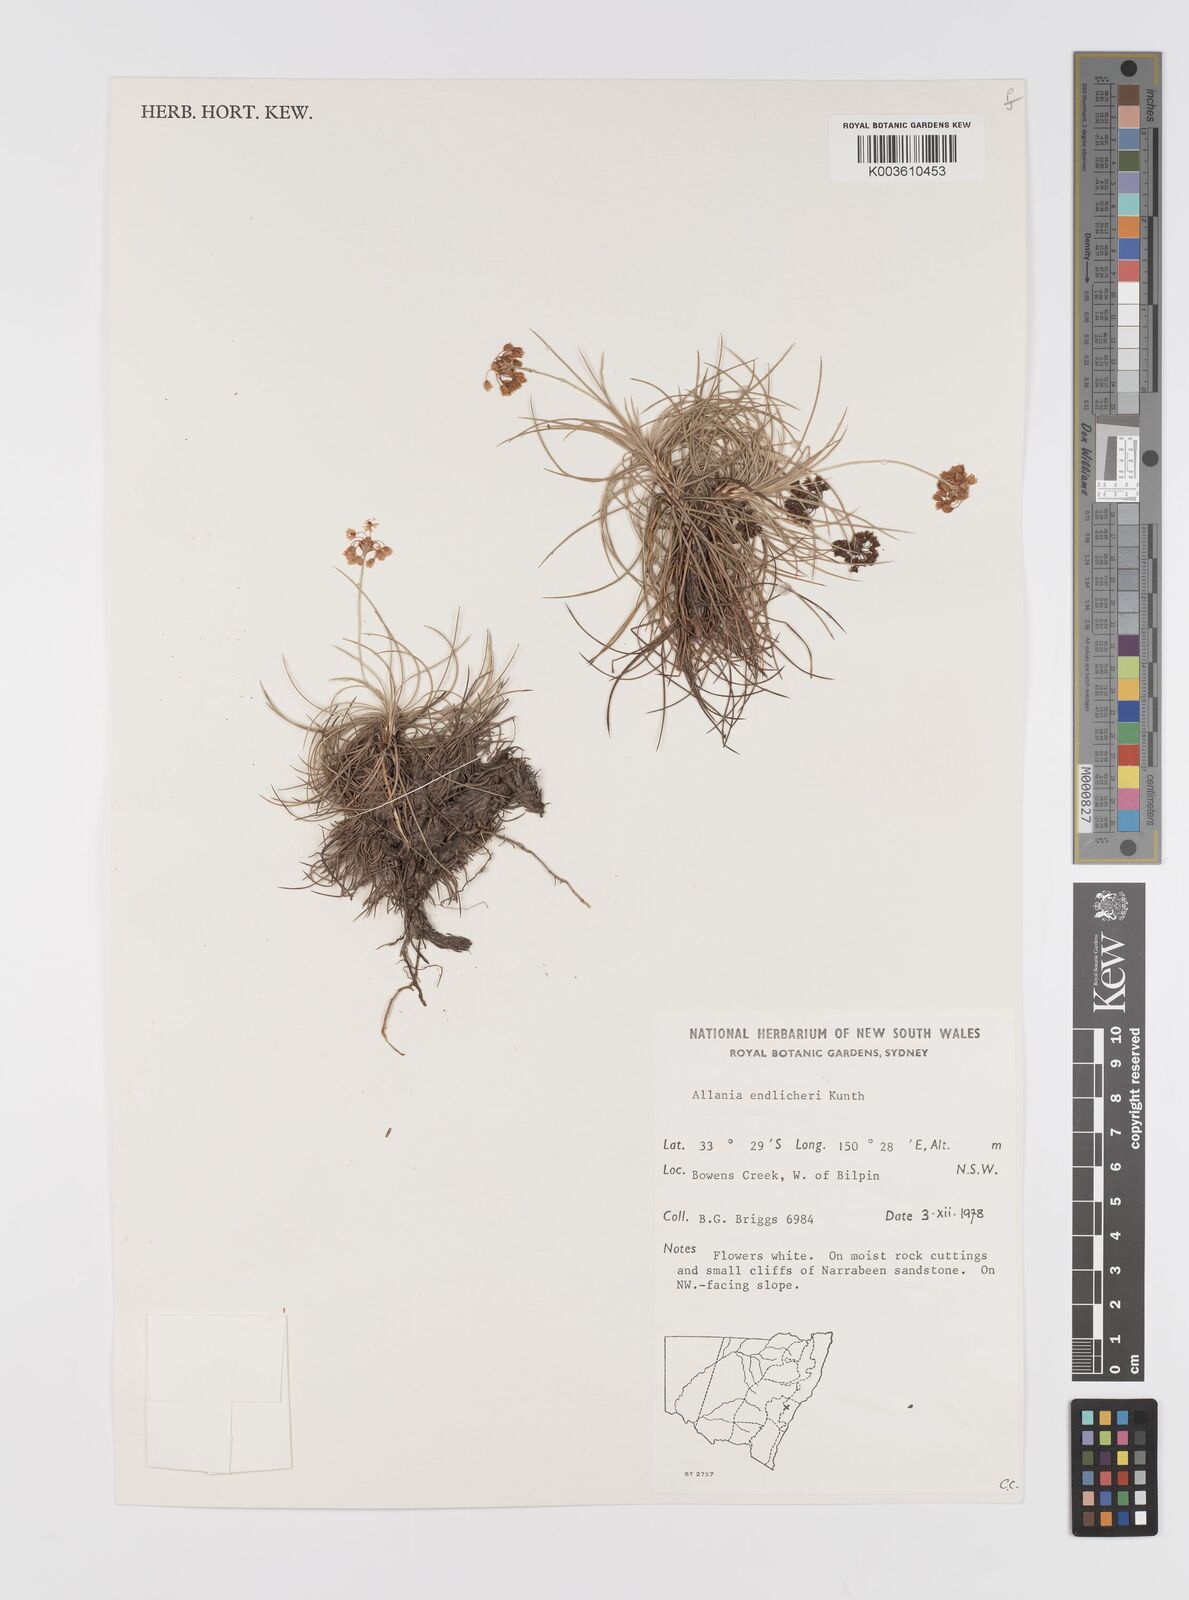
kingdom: Plantae
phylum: Tracheophyta
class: Liliopsida
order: Asparagales
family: Boryaceae
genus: Alania
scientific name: Alania cunninghamii
